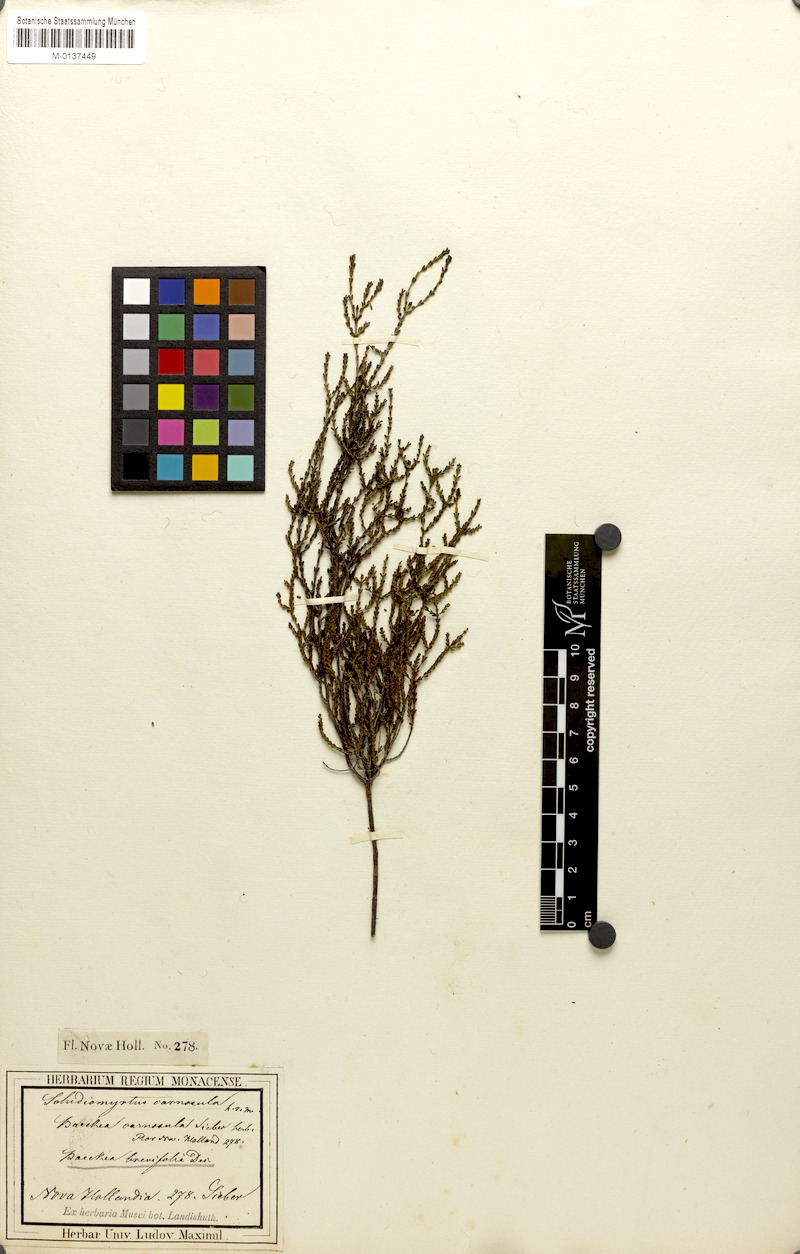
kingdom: Plantae
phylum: Tracheophyta
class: Magnoliopsida
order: Myrtales
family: Myrtaceae
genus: Baeckea
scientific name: Baeckea brevifolia
